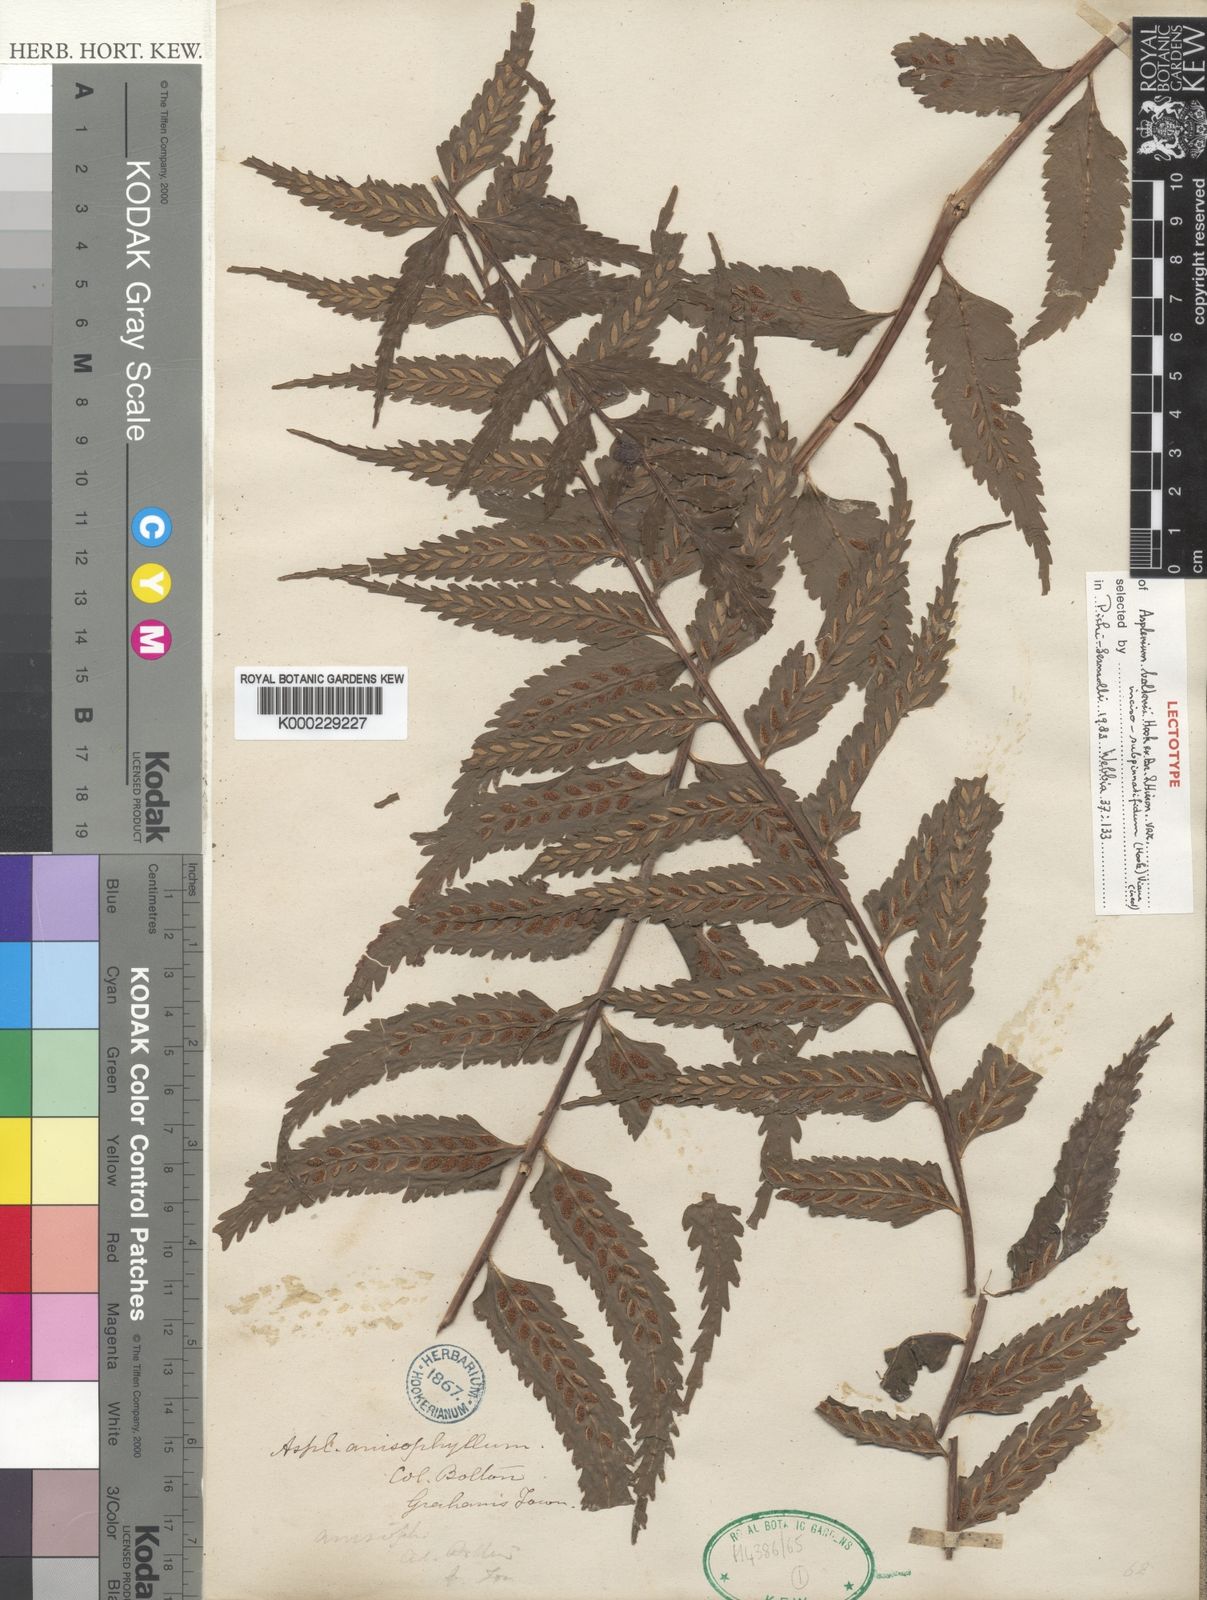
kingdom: Plantae
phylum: Tracheophyta
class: Polypodiopsida
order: Polypodiales
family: Aspleniaceae
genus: Asplenium
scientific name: Asplenium
